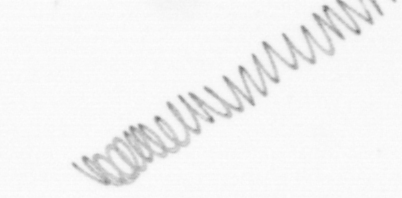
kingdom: Chromista
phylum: Ochrophyta
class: Bacillariophyceae
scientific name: Bacillariophyceae
